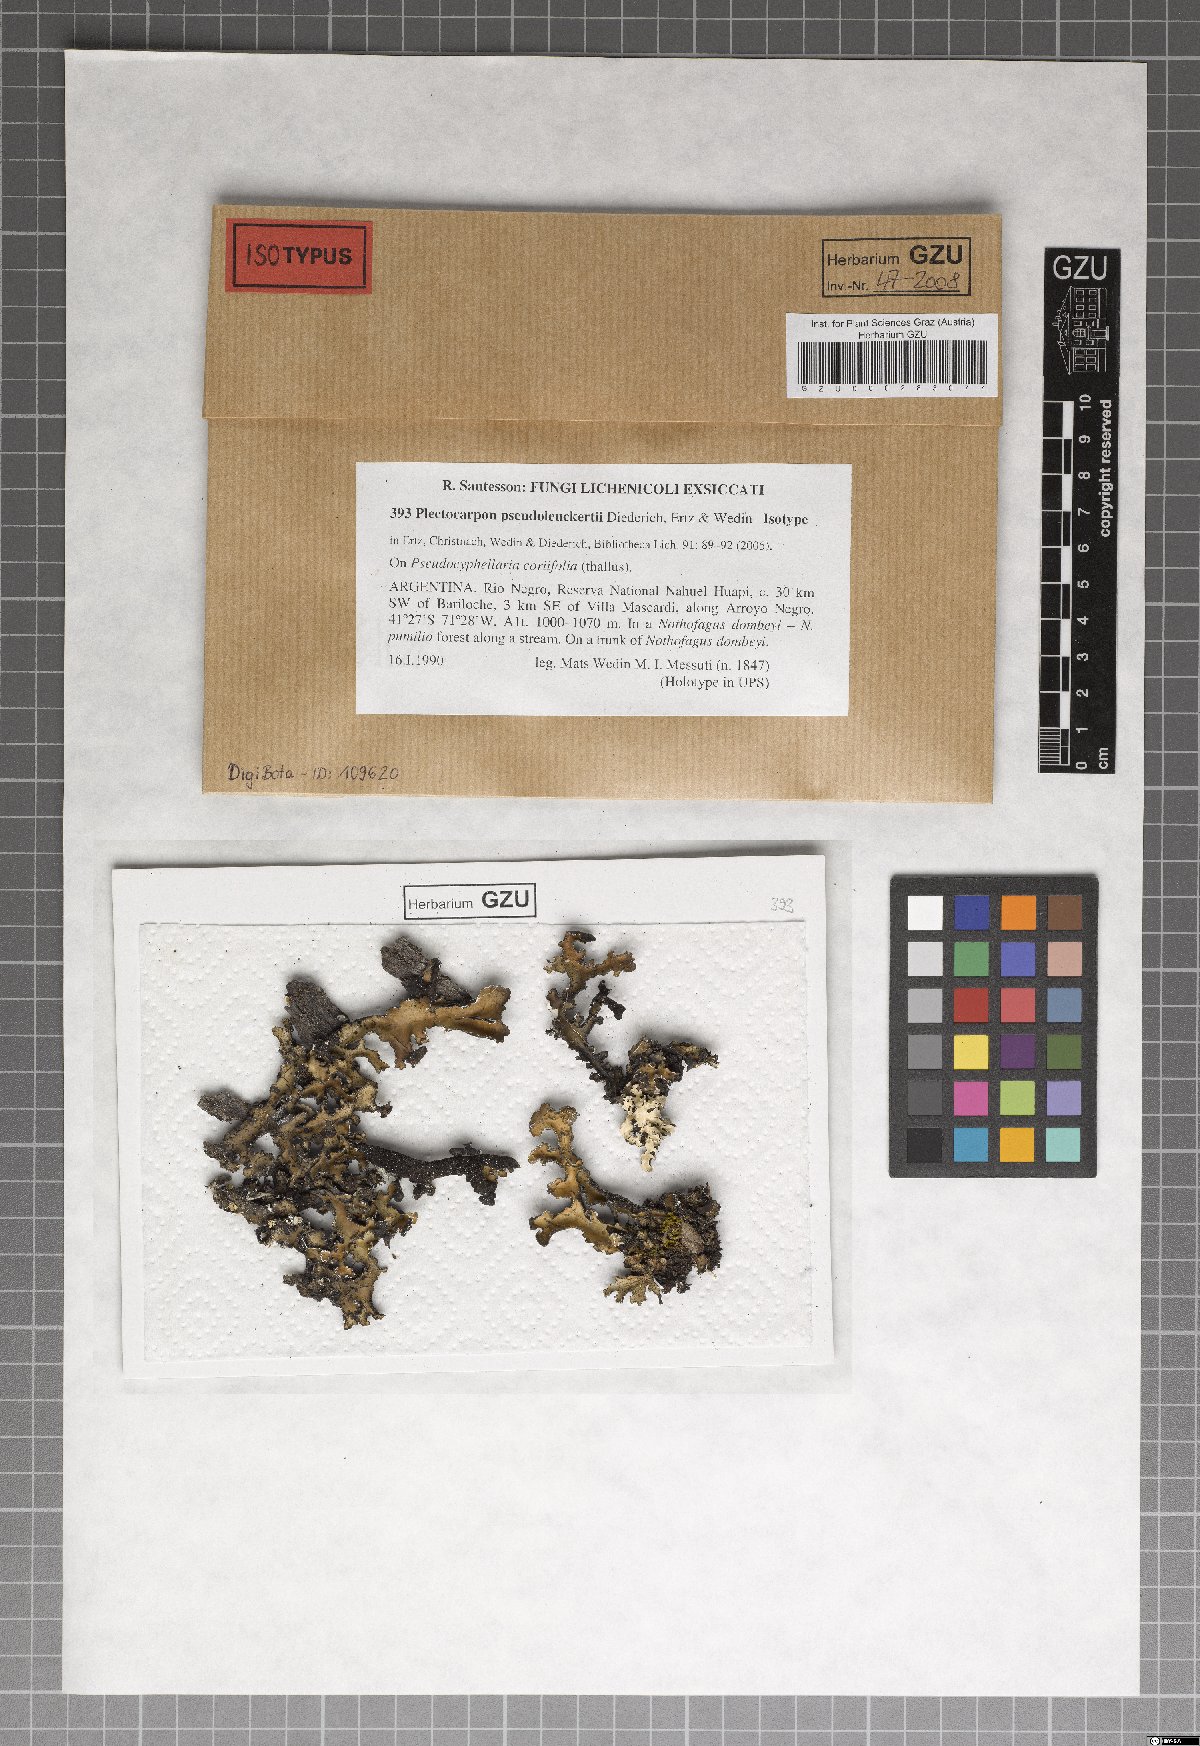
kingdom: Fungi
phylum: Ascomycota
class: Arthoniomycetes
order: Arthoniales
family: Lecanographaceae
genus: Plectocarpon
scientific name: Plectocarpon pseudoleuckertii
